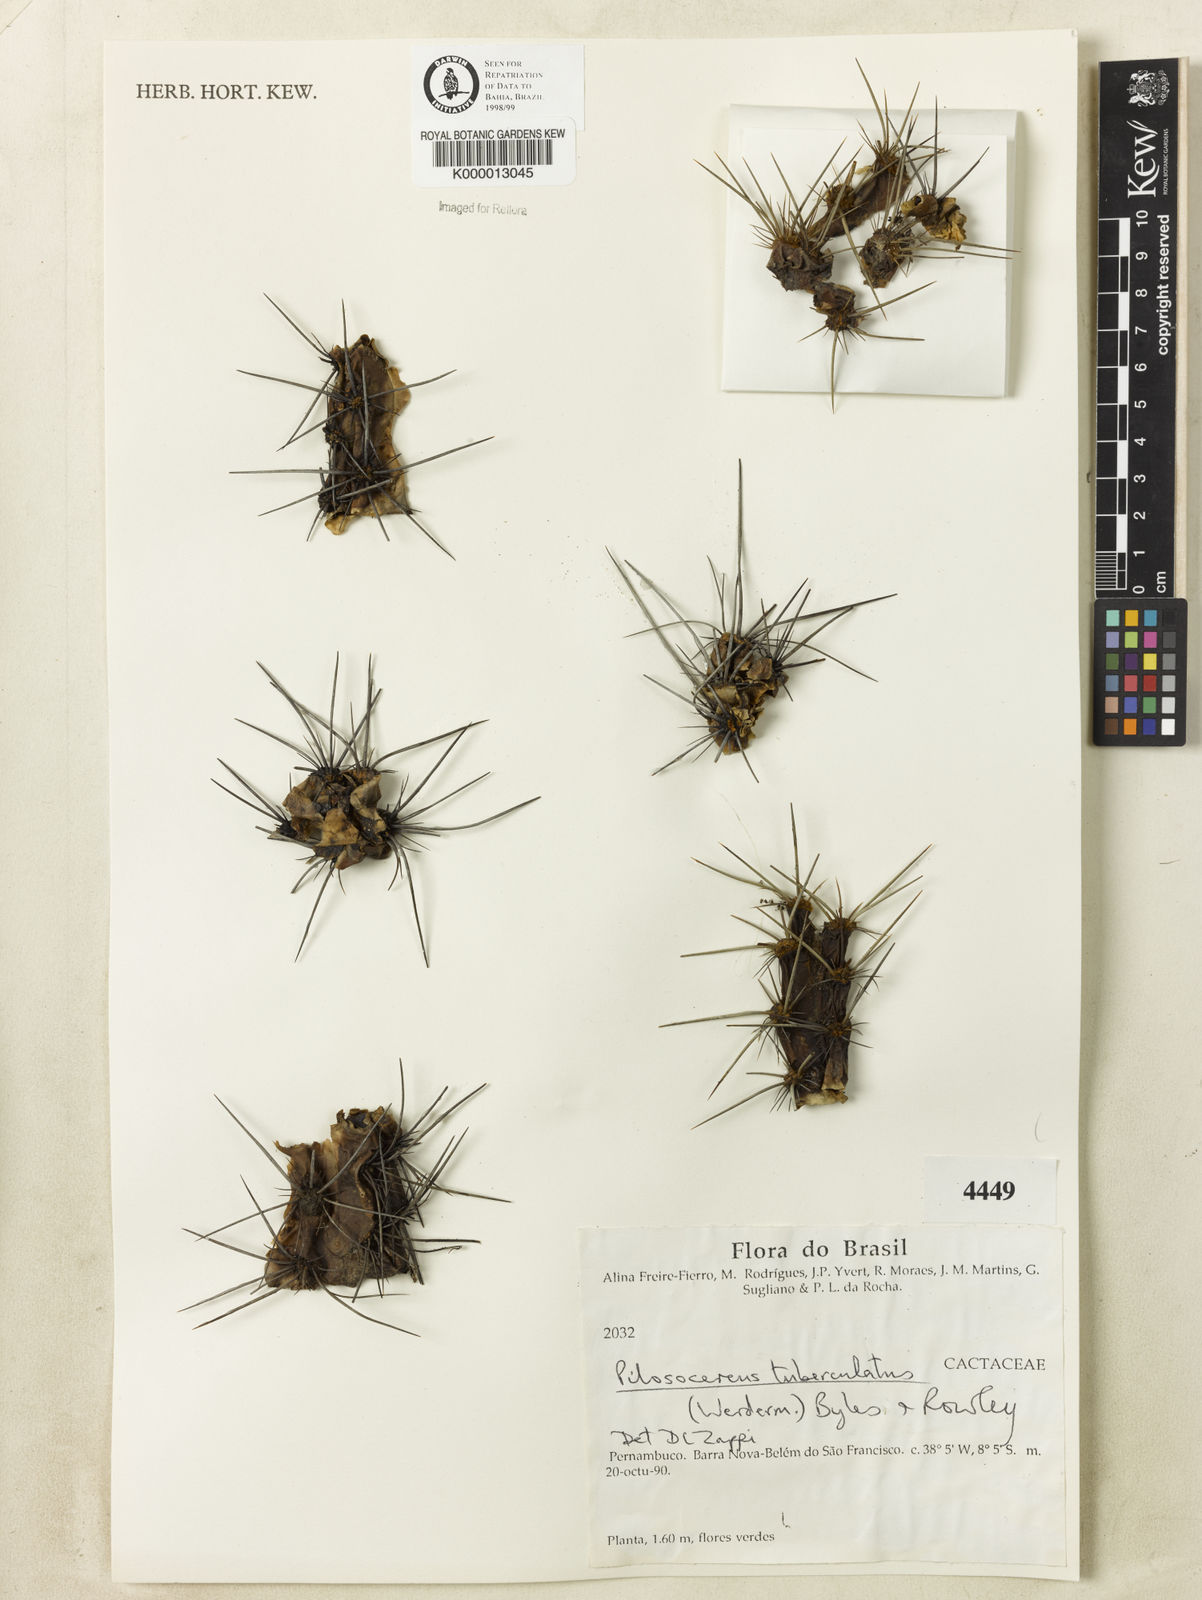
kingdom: Plantae
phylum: Tracheophyta
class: Magnoliopsida
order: Caryophyllales
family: Cactaceae
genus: Xiquexique
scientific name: Xiquexique tuberculatus
